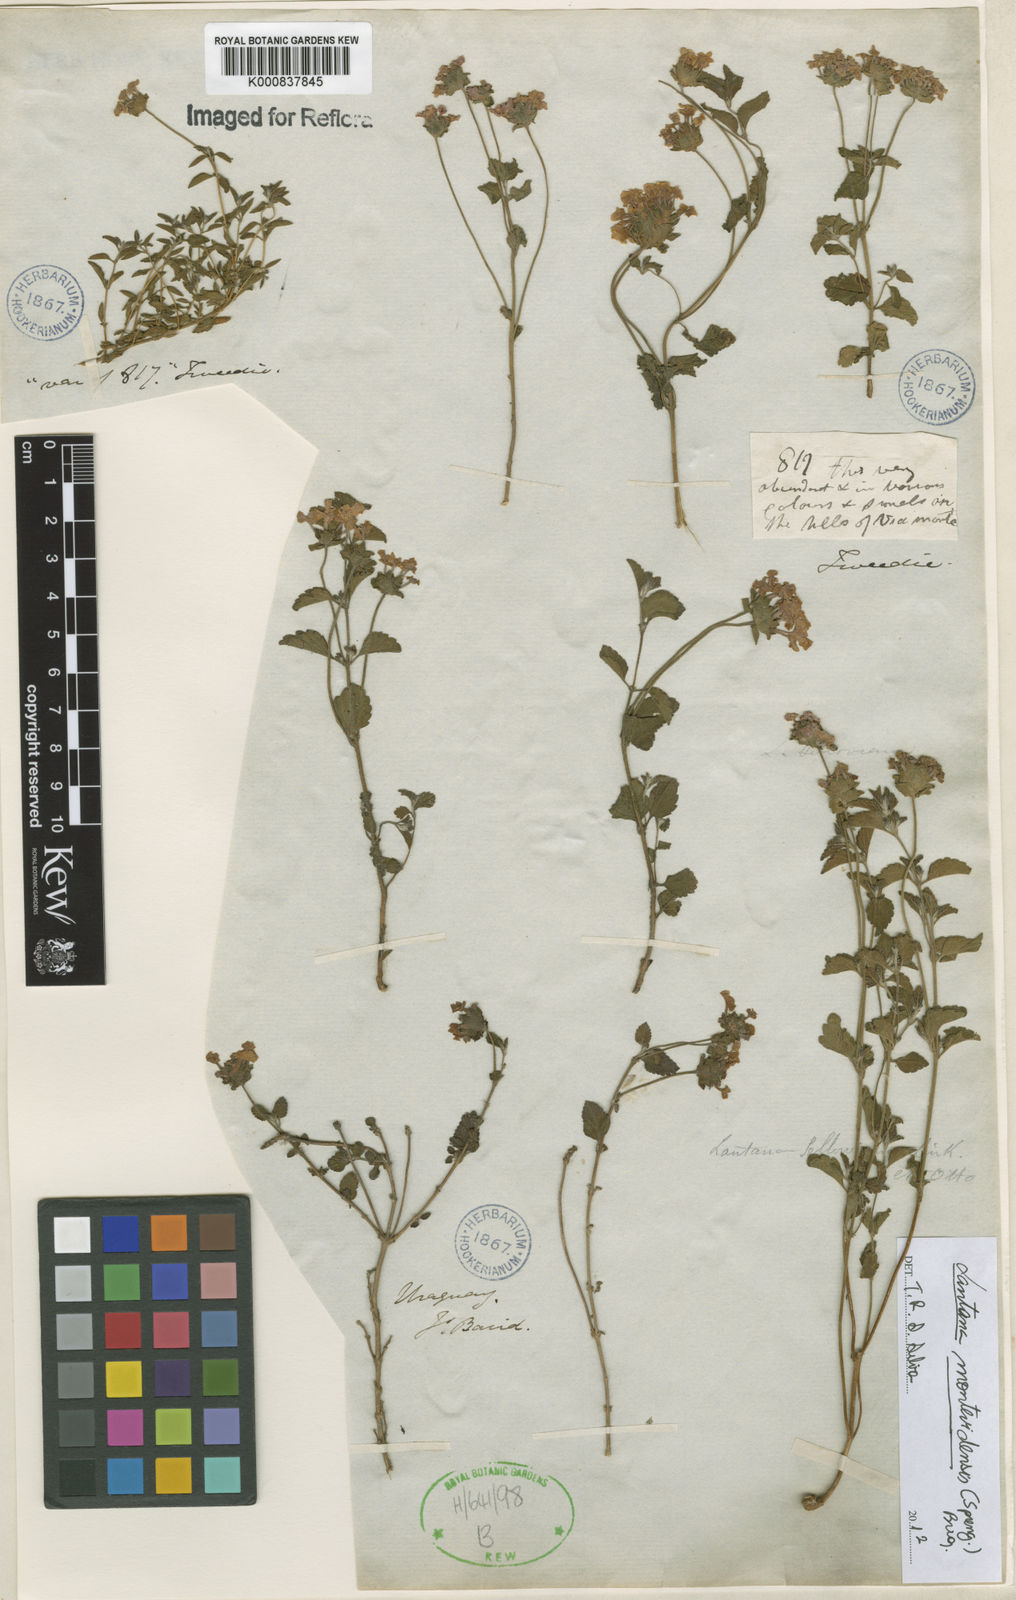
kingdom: Plantae
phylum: Tracheophyta
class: Magnoliopsida
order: Lamiales
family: Verbenaceae
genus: Lantana
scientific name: Lantana montevidensis
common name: Trailing shrubverbena
